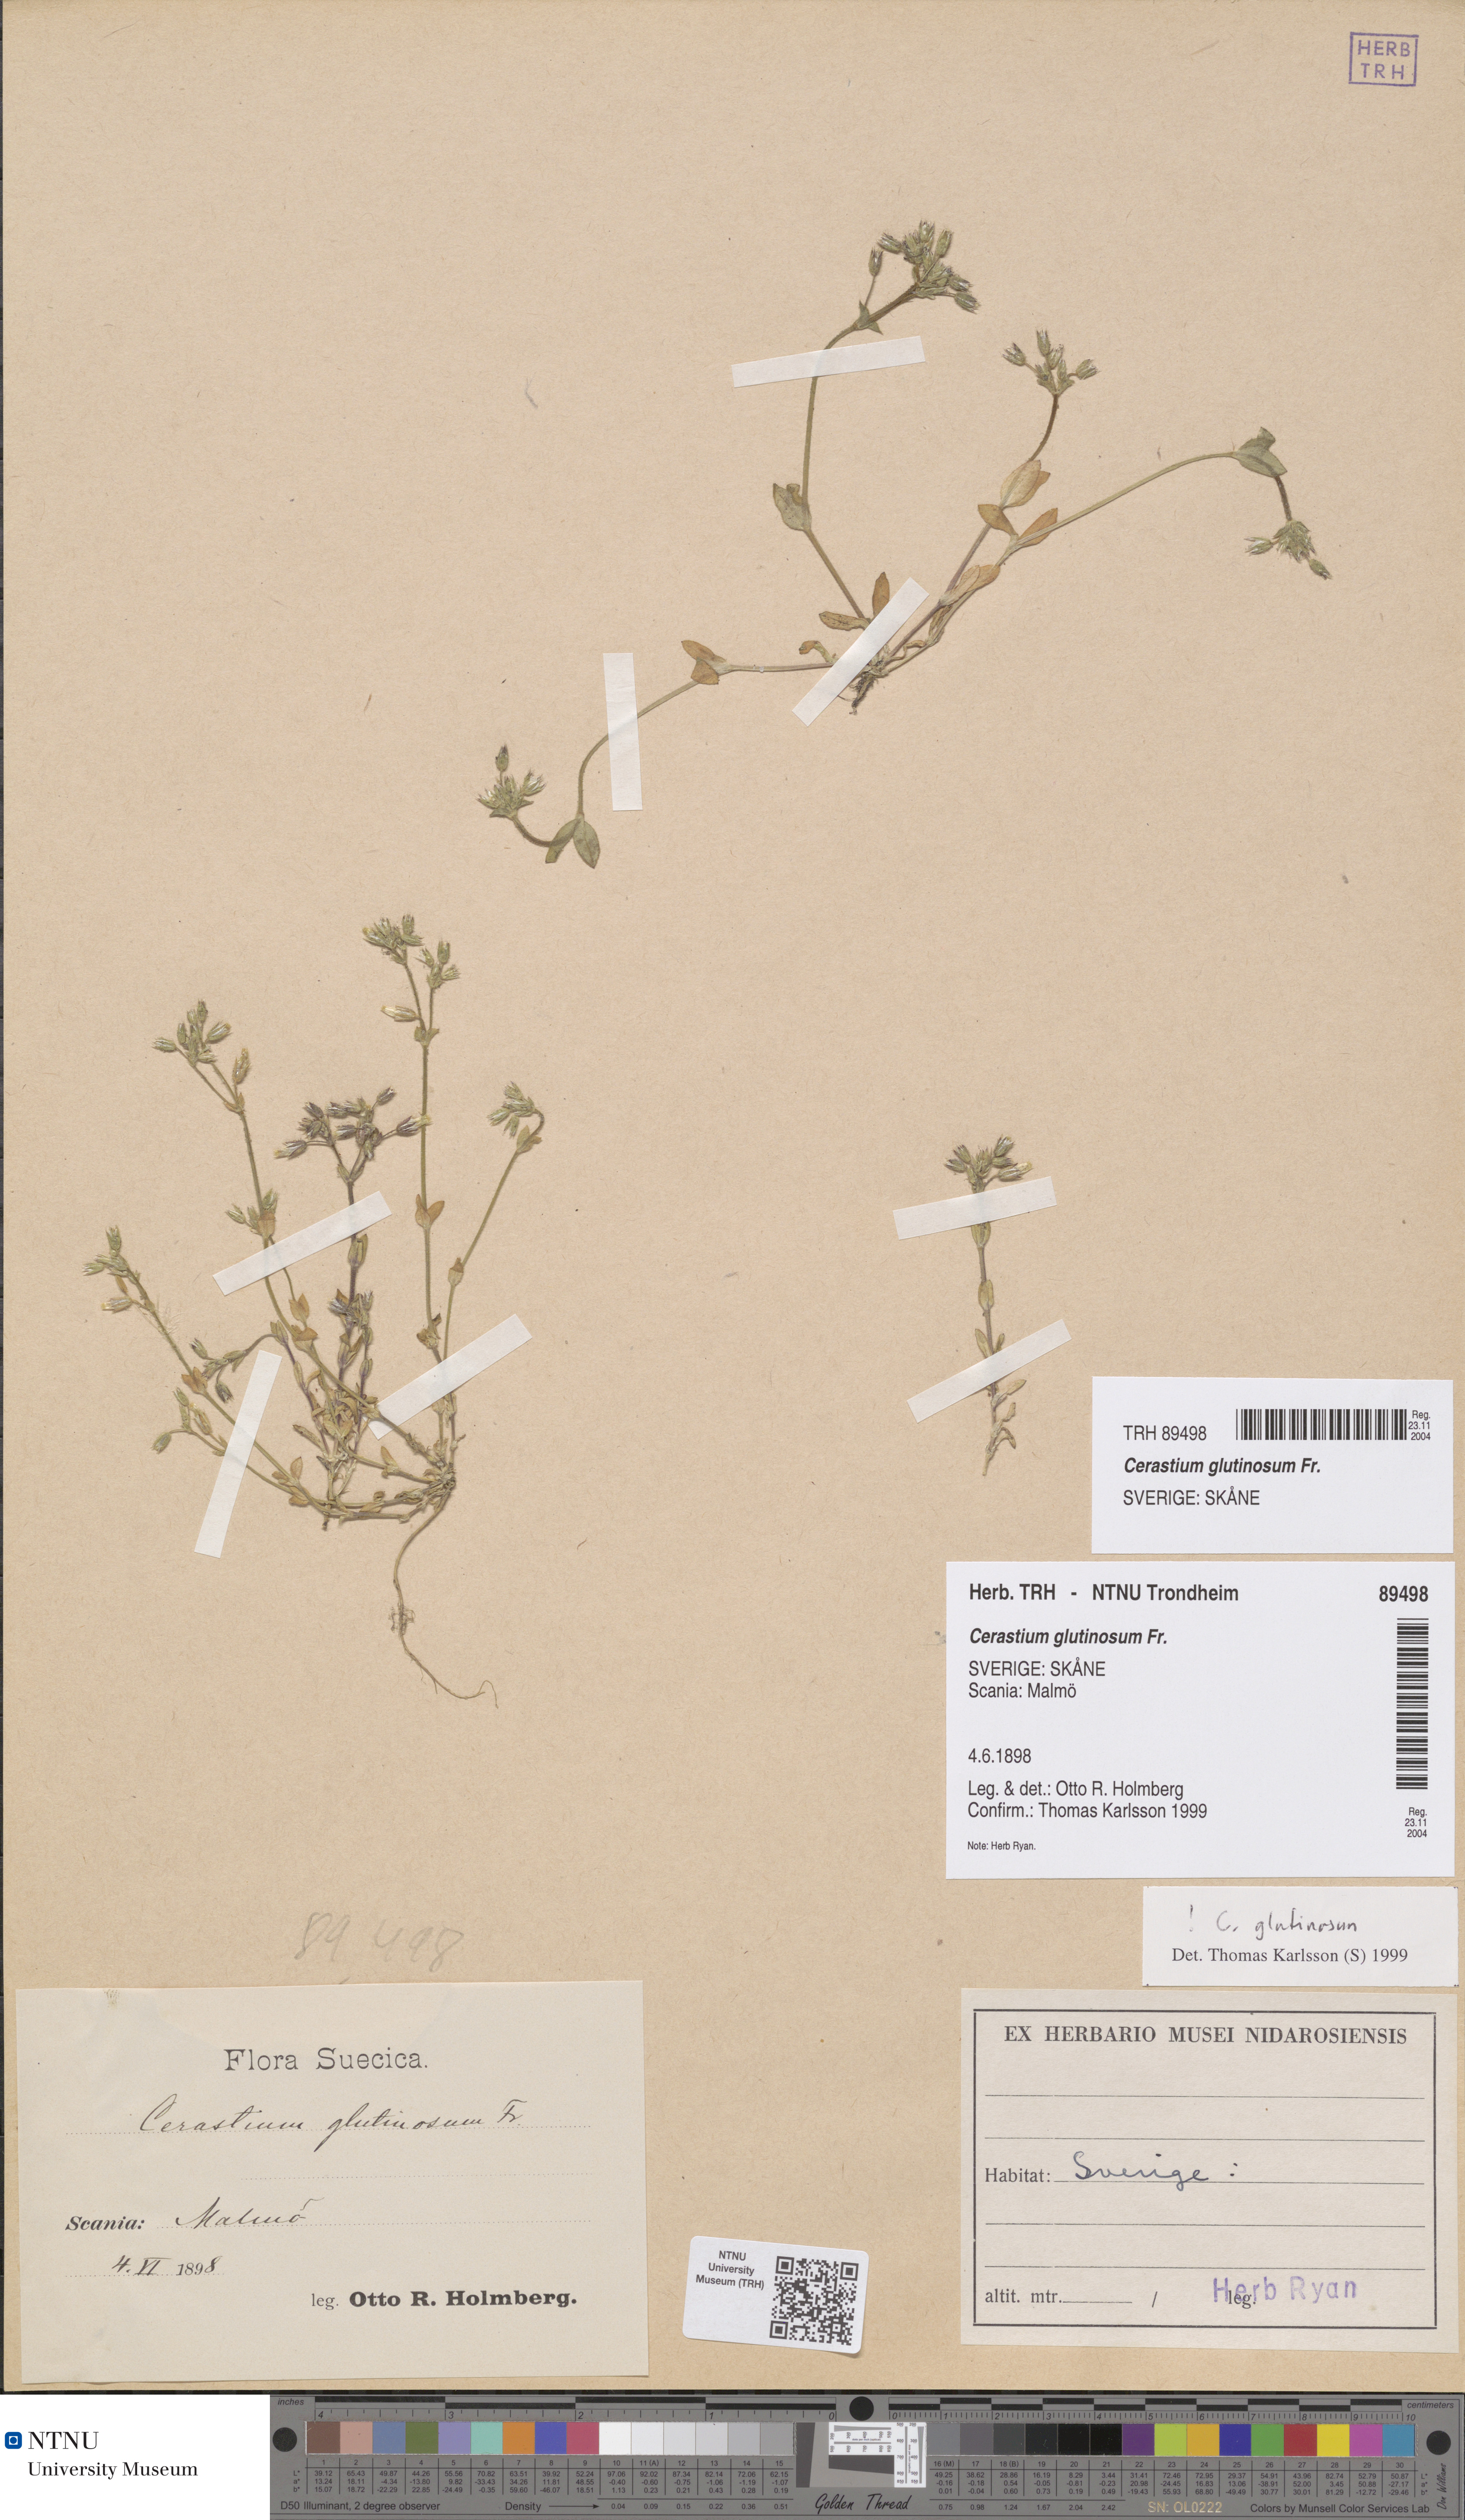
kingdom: Plantae
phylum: Tracheophyta
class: Magnoliopsida
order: Caryophyllales
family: Caryophyllaceae
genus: Cerastium
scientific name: Cerastium glutinosum
